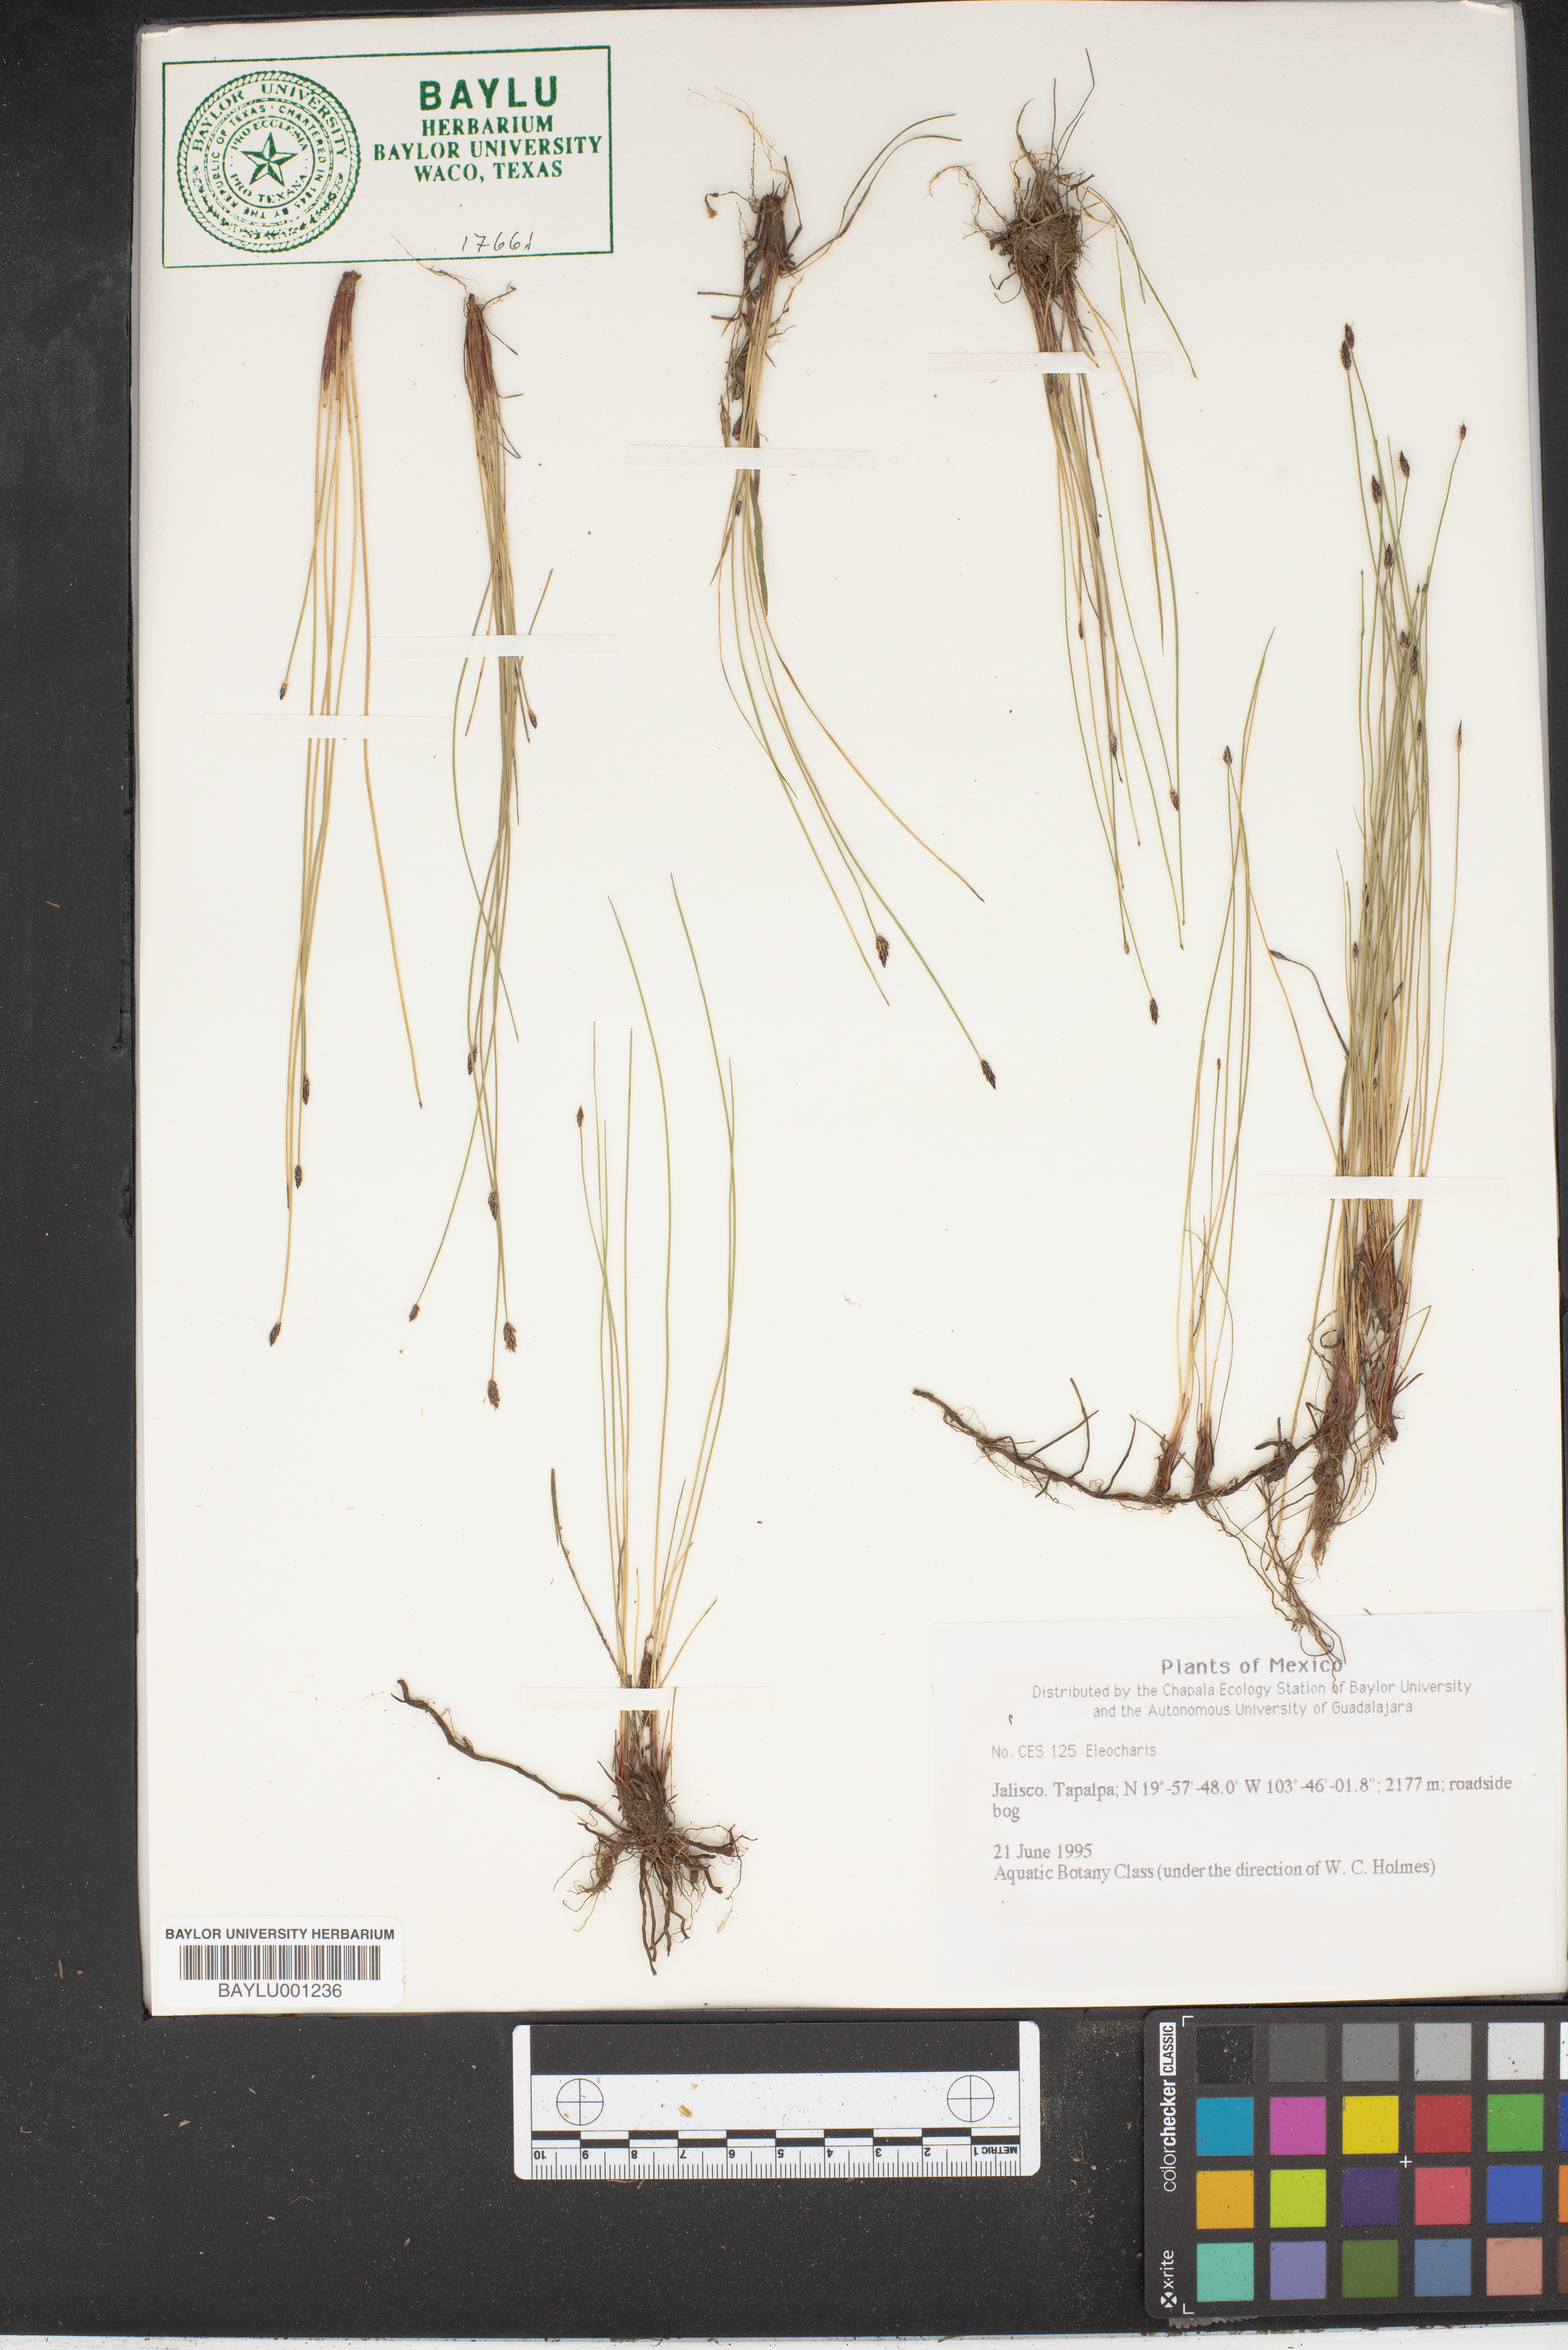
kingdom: Plantae
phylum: Tracheophyta
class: Liliopsida
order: Poales
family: Cyperaceae
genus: Eleocharis
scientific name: Eleocharis
